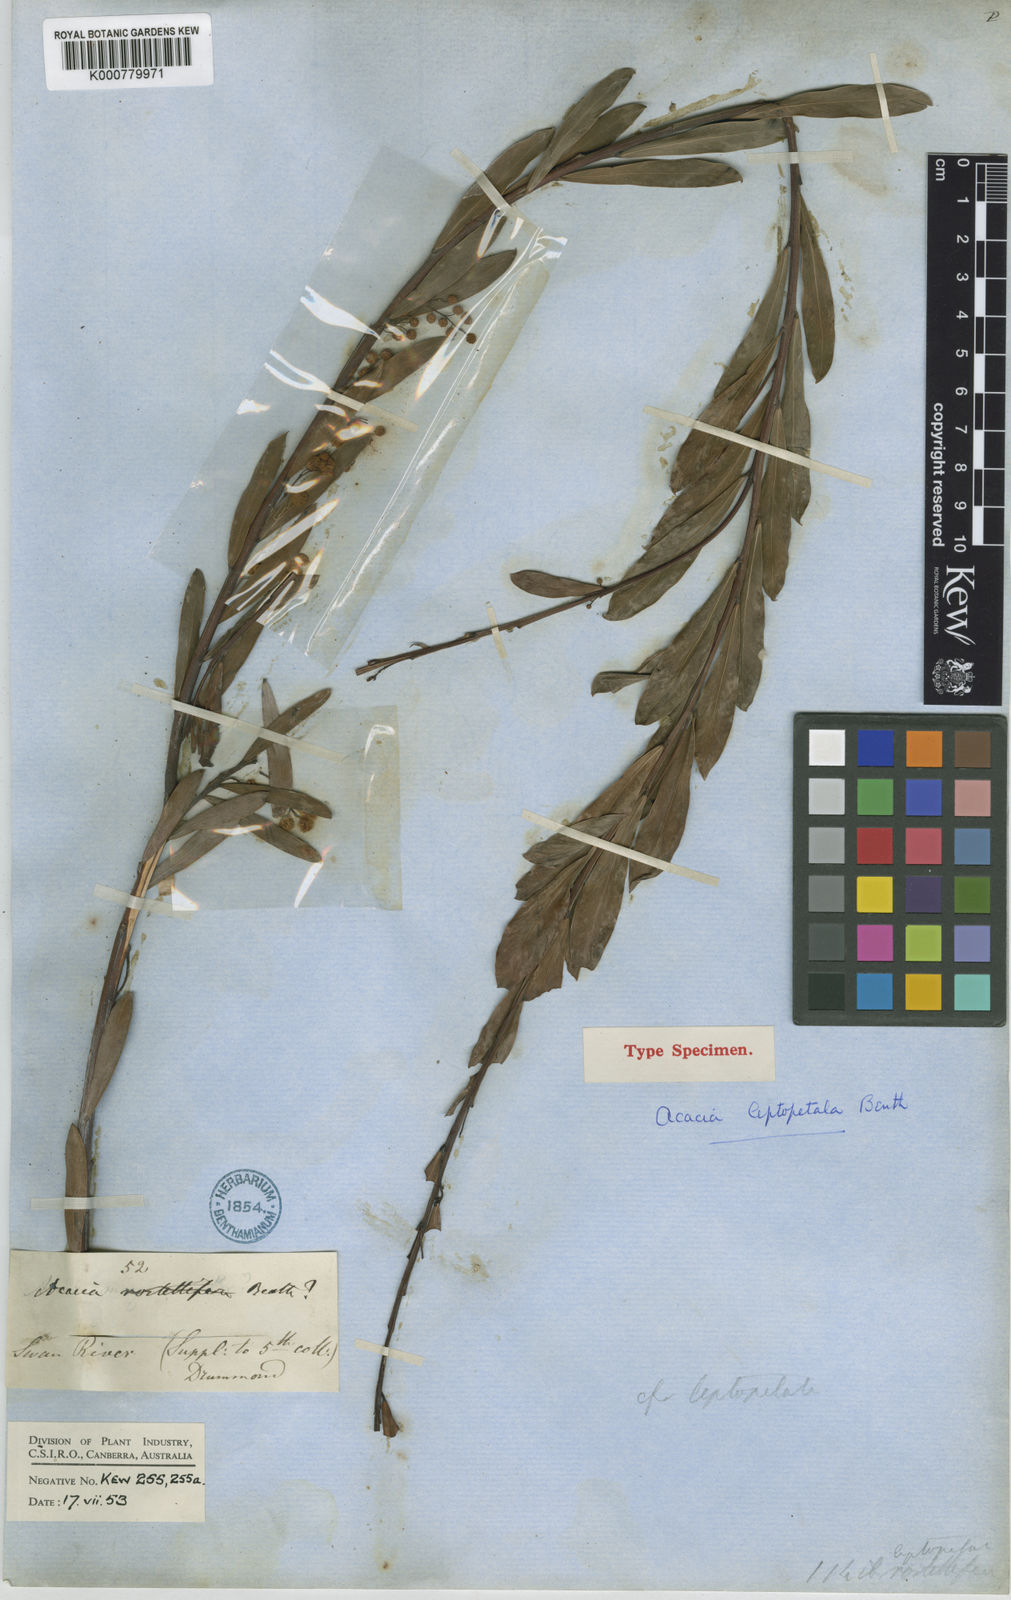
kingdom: Plantae
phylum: Tracheophyta
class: Magnoliopsida
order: Fabales
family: Fabaceae
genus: Acacia
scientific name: Acacia leptopetala
